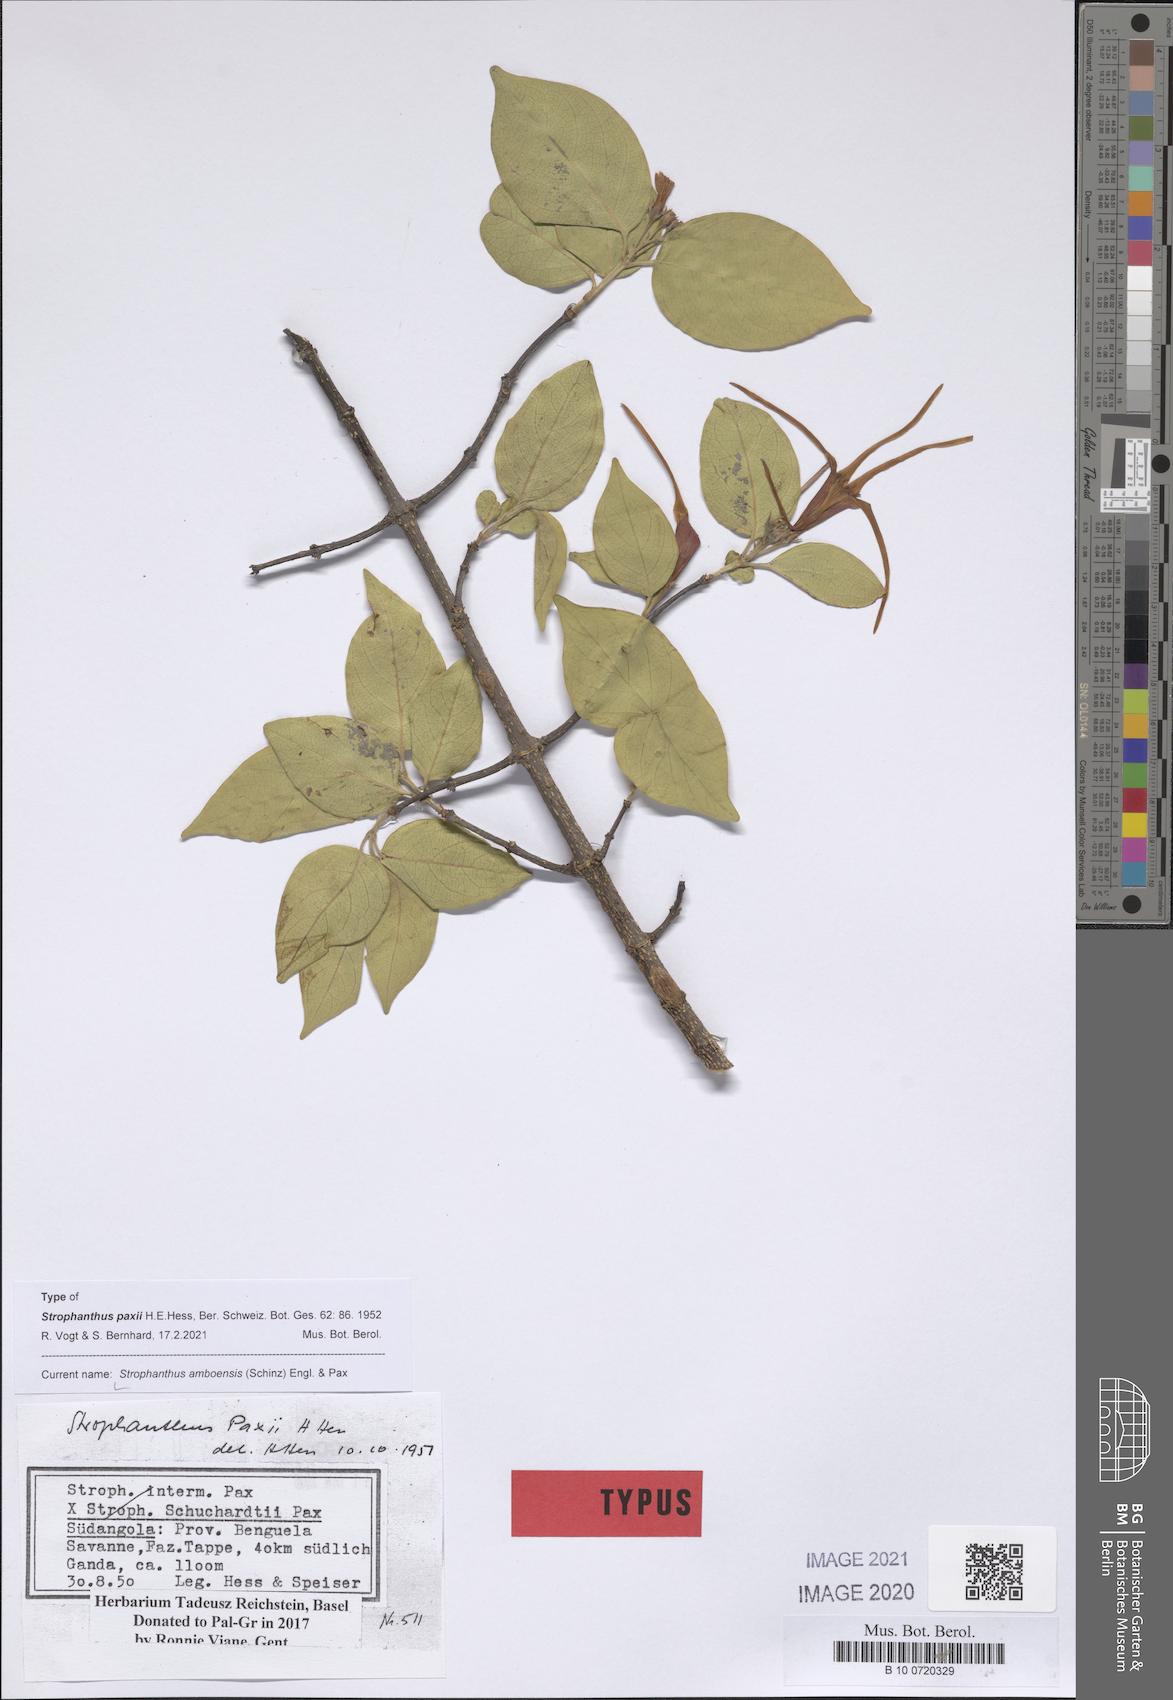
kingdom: Plantae
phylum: Tracheophyta
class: Magnoliopsida
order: Gentianales
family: Apocynaceae
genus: Strophanthus
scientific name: Strophanthus amboensis
